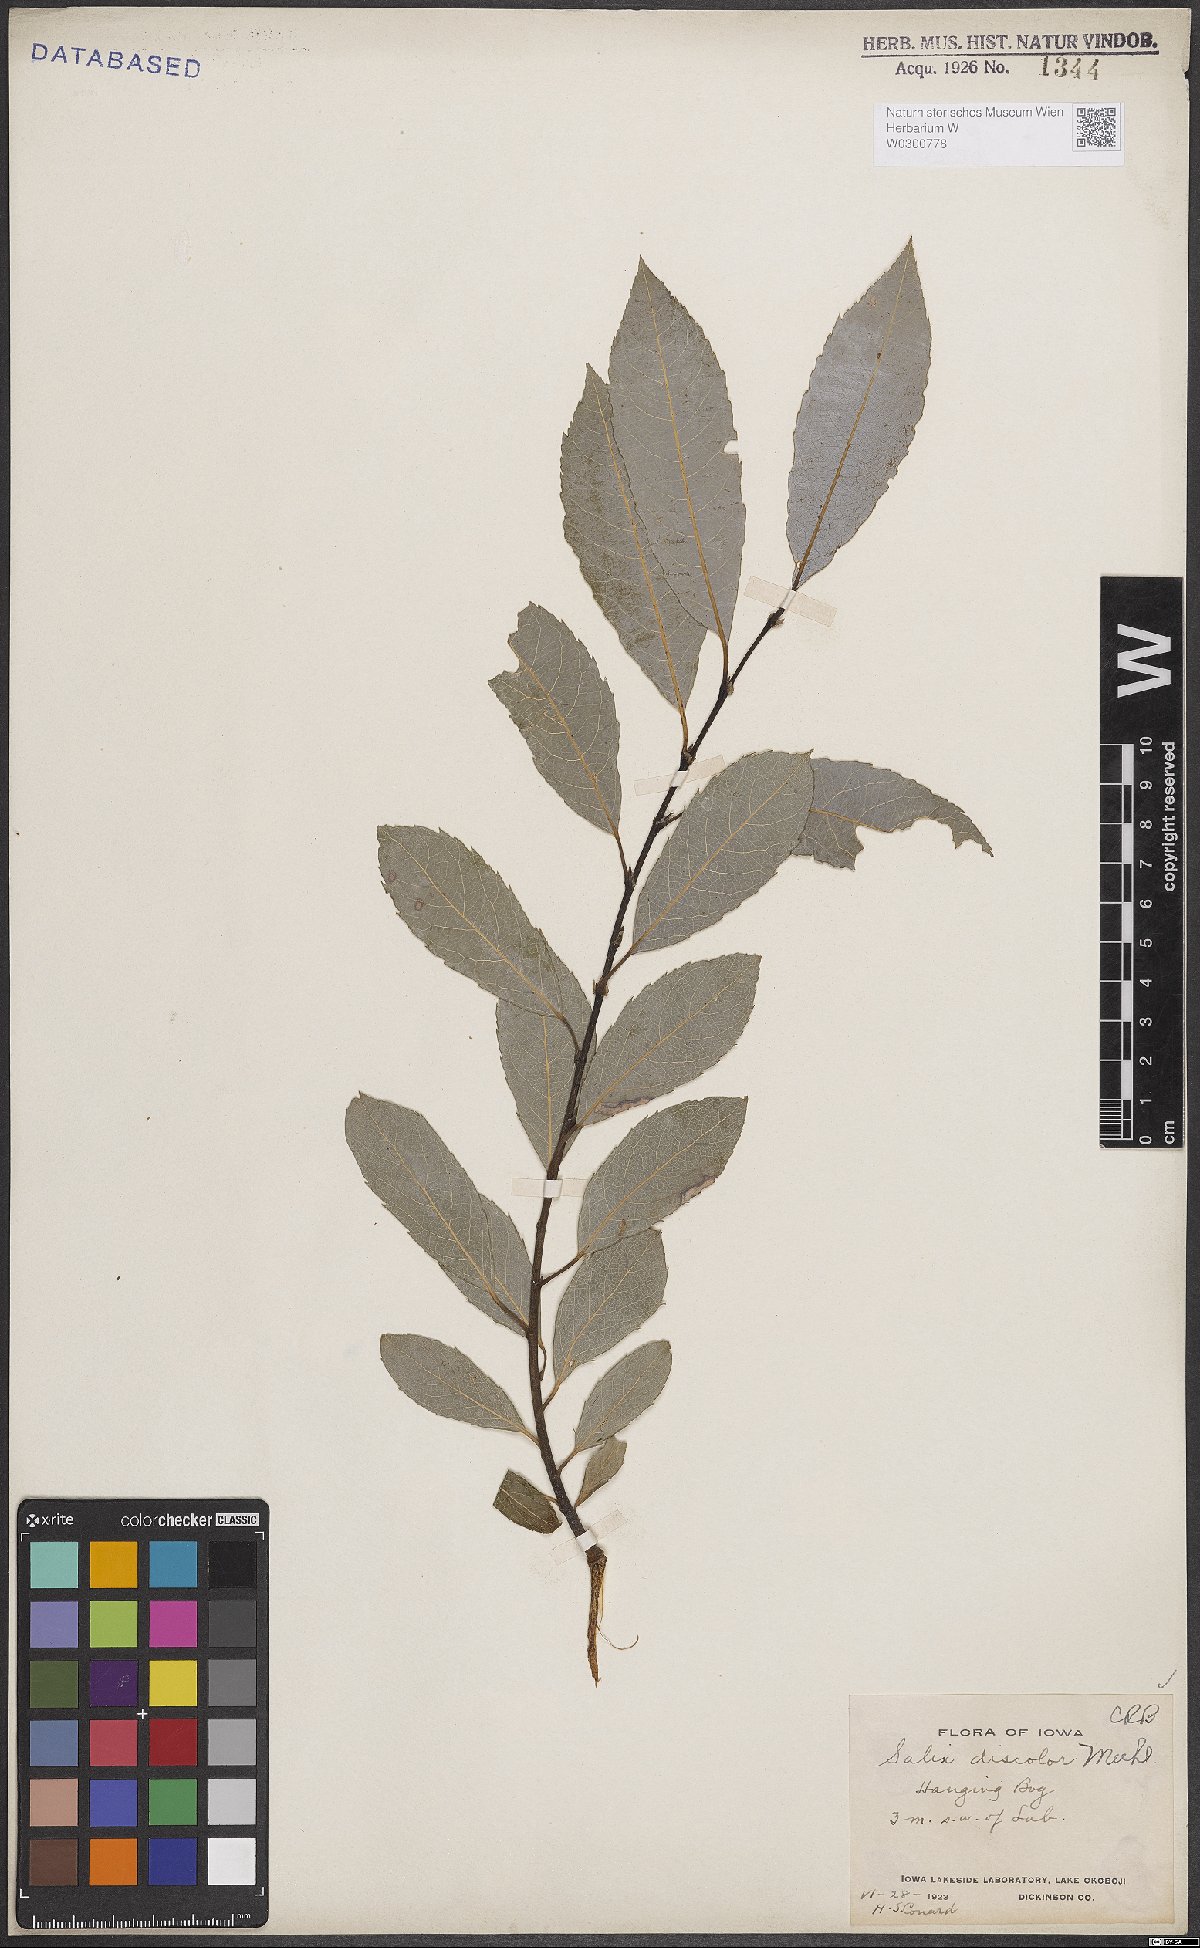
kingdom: Plantae
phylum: Tracheophyta
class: Magnoliopsida
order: Malpighiales
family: Salicaceae
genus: Salix
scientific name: Salix discolor
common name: Glaucous willow
